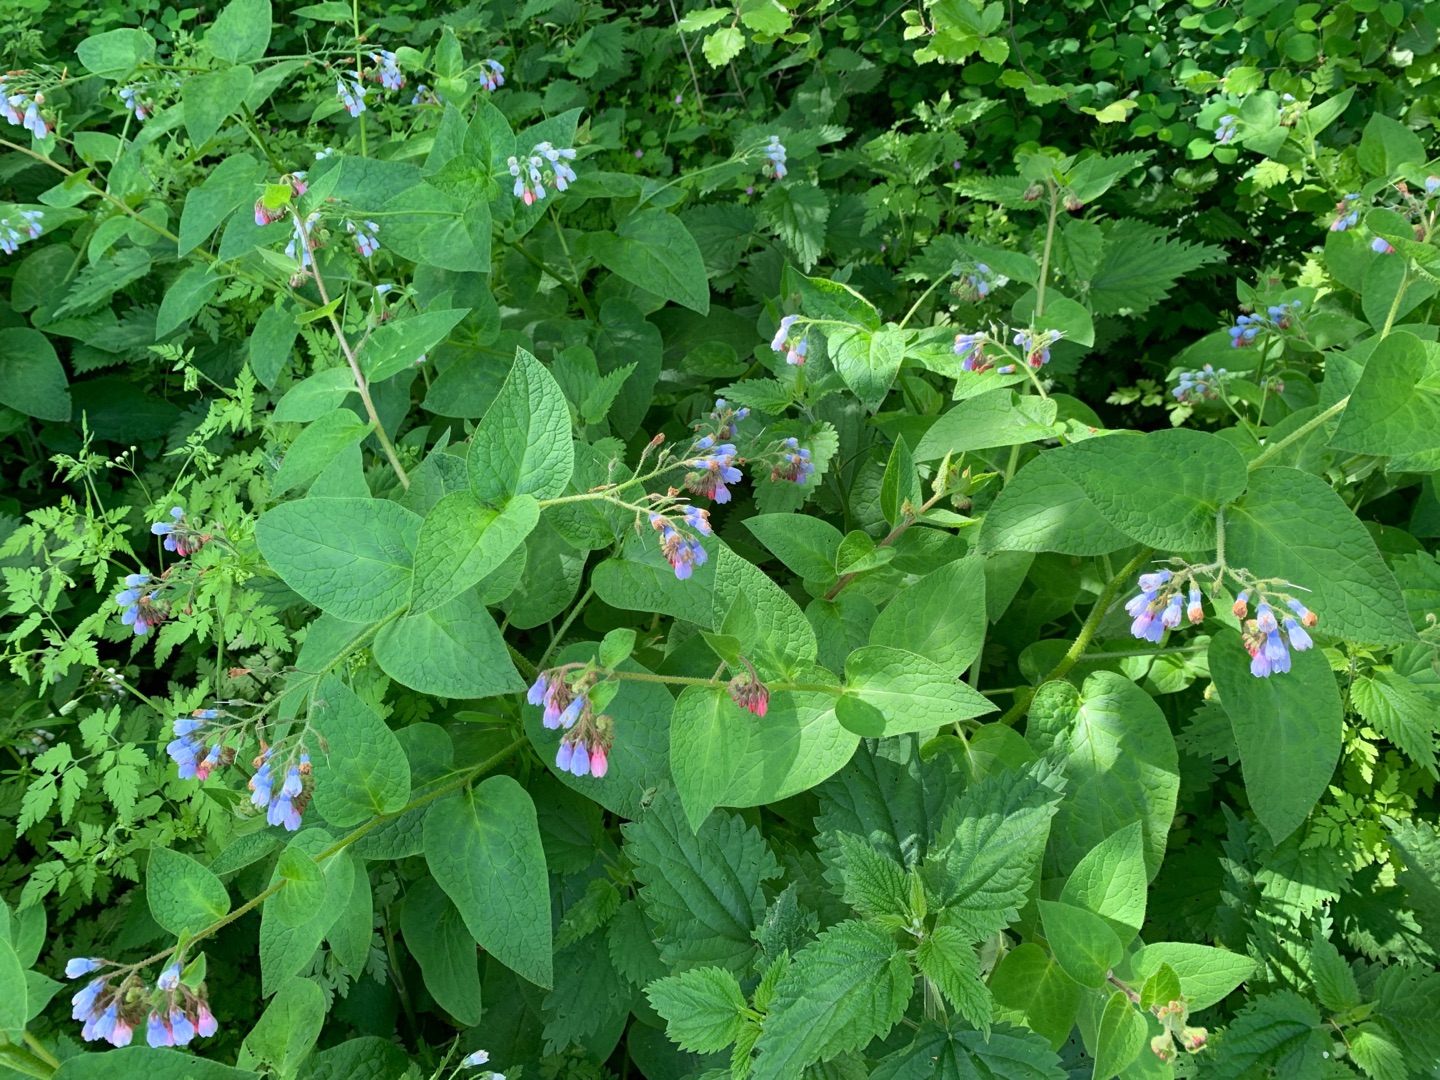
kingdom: Plantae
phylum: Tracheophyta
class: Magnoliopsida
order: Boraginales
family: Boraginaceae
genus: Symphytum
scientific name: Symphytum hidcotense
